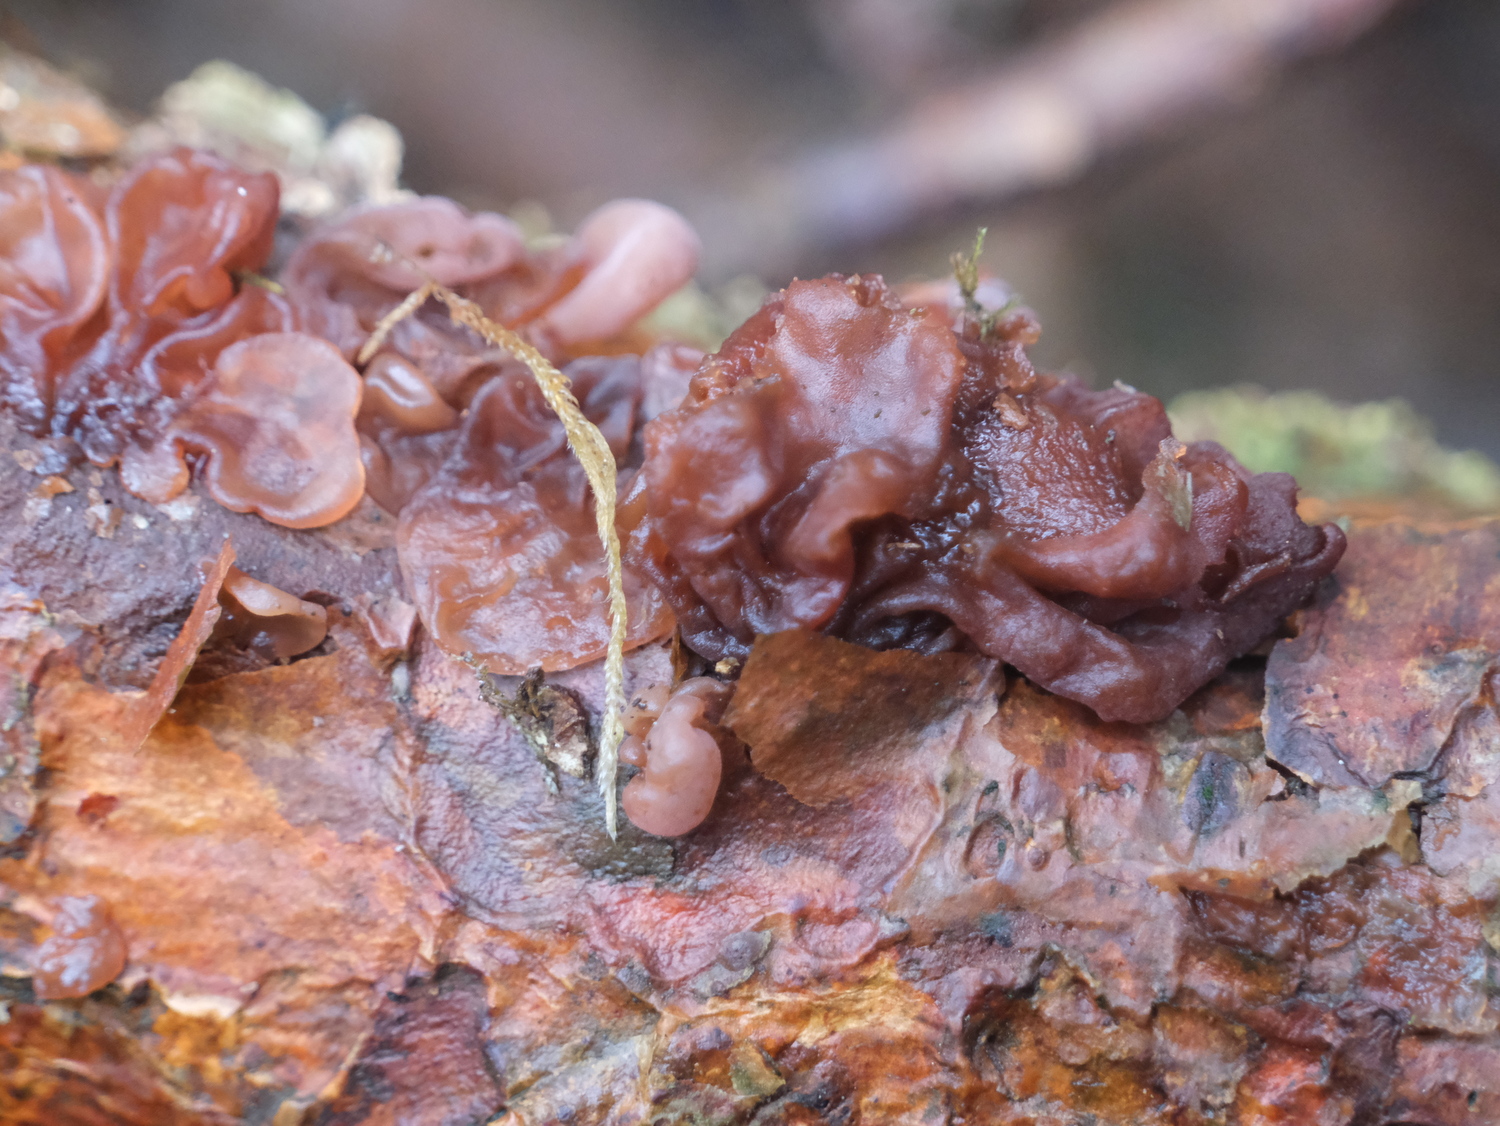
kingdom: Fungi
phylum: Basidiomycota
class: Tremellomycetes
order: Tremellales
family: Tremellaceae
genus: Phaeotremella
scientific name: Phaeotremella foliacea
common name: brun bævresvamp
